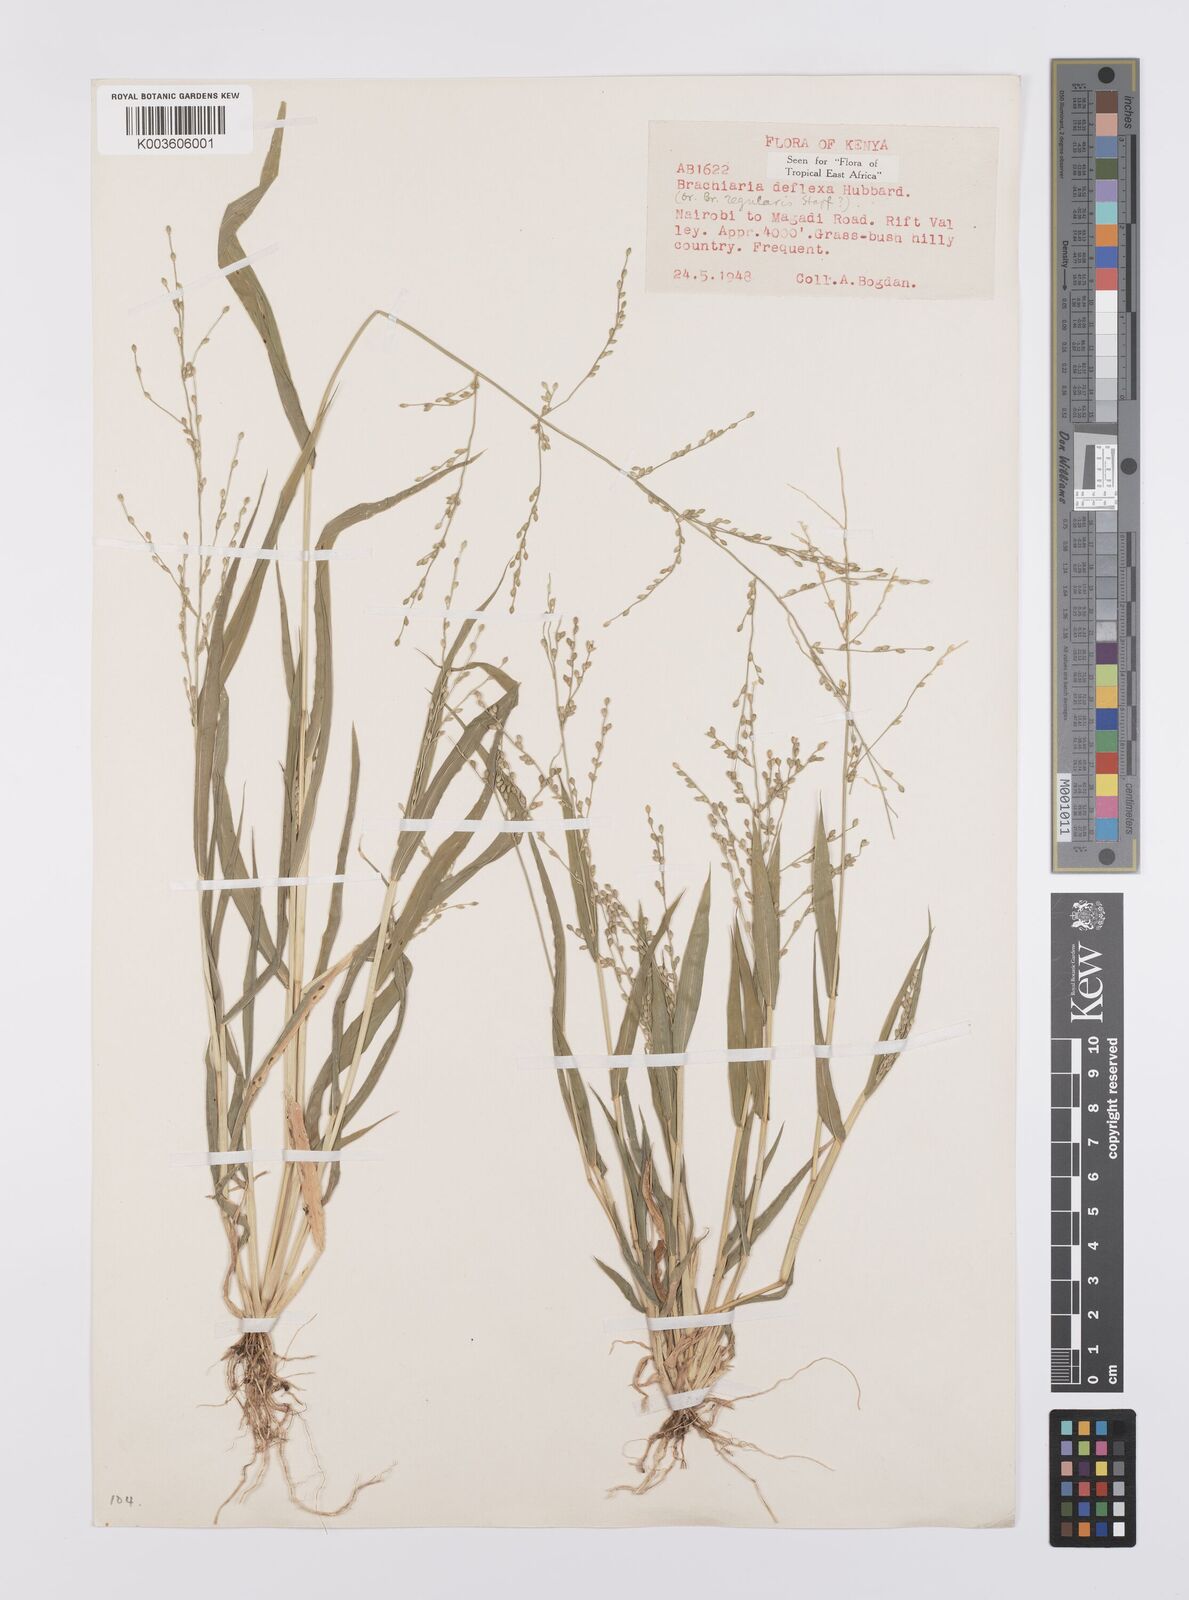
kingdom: Plantae
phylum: Tracheophyta
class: Liliopsida
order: Poales
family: Poaceae
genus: Urochloa
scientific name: Urochloa deflexa
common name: Guinea millet
